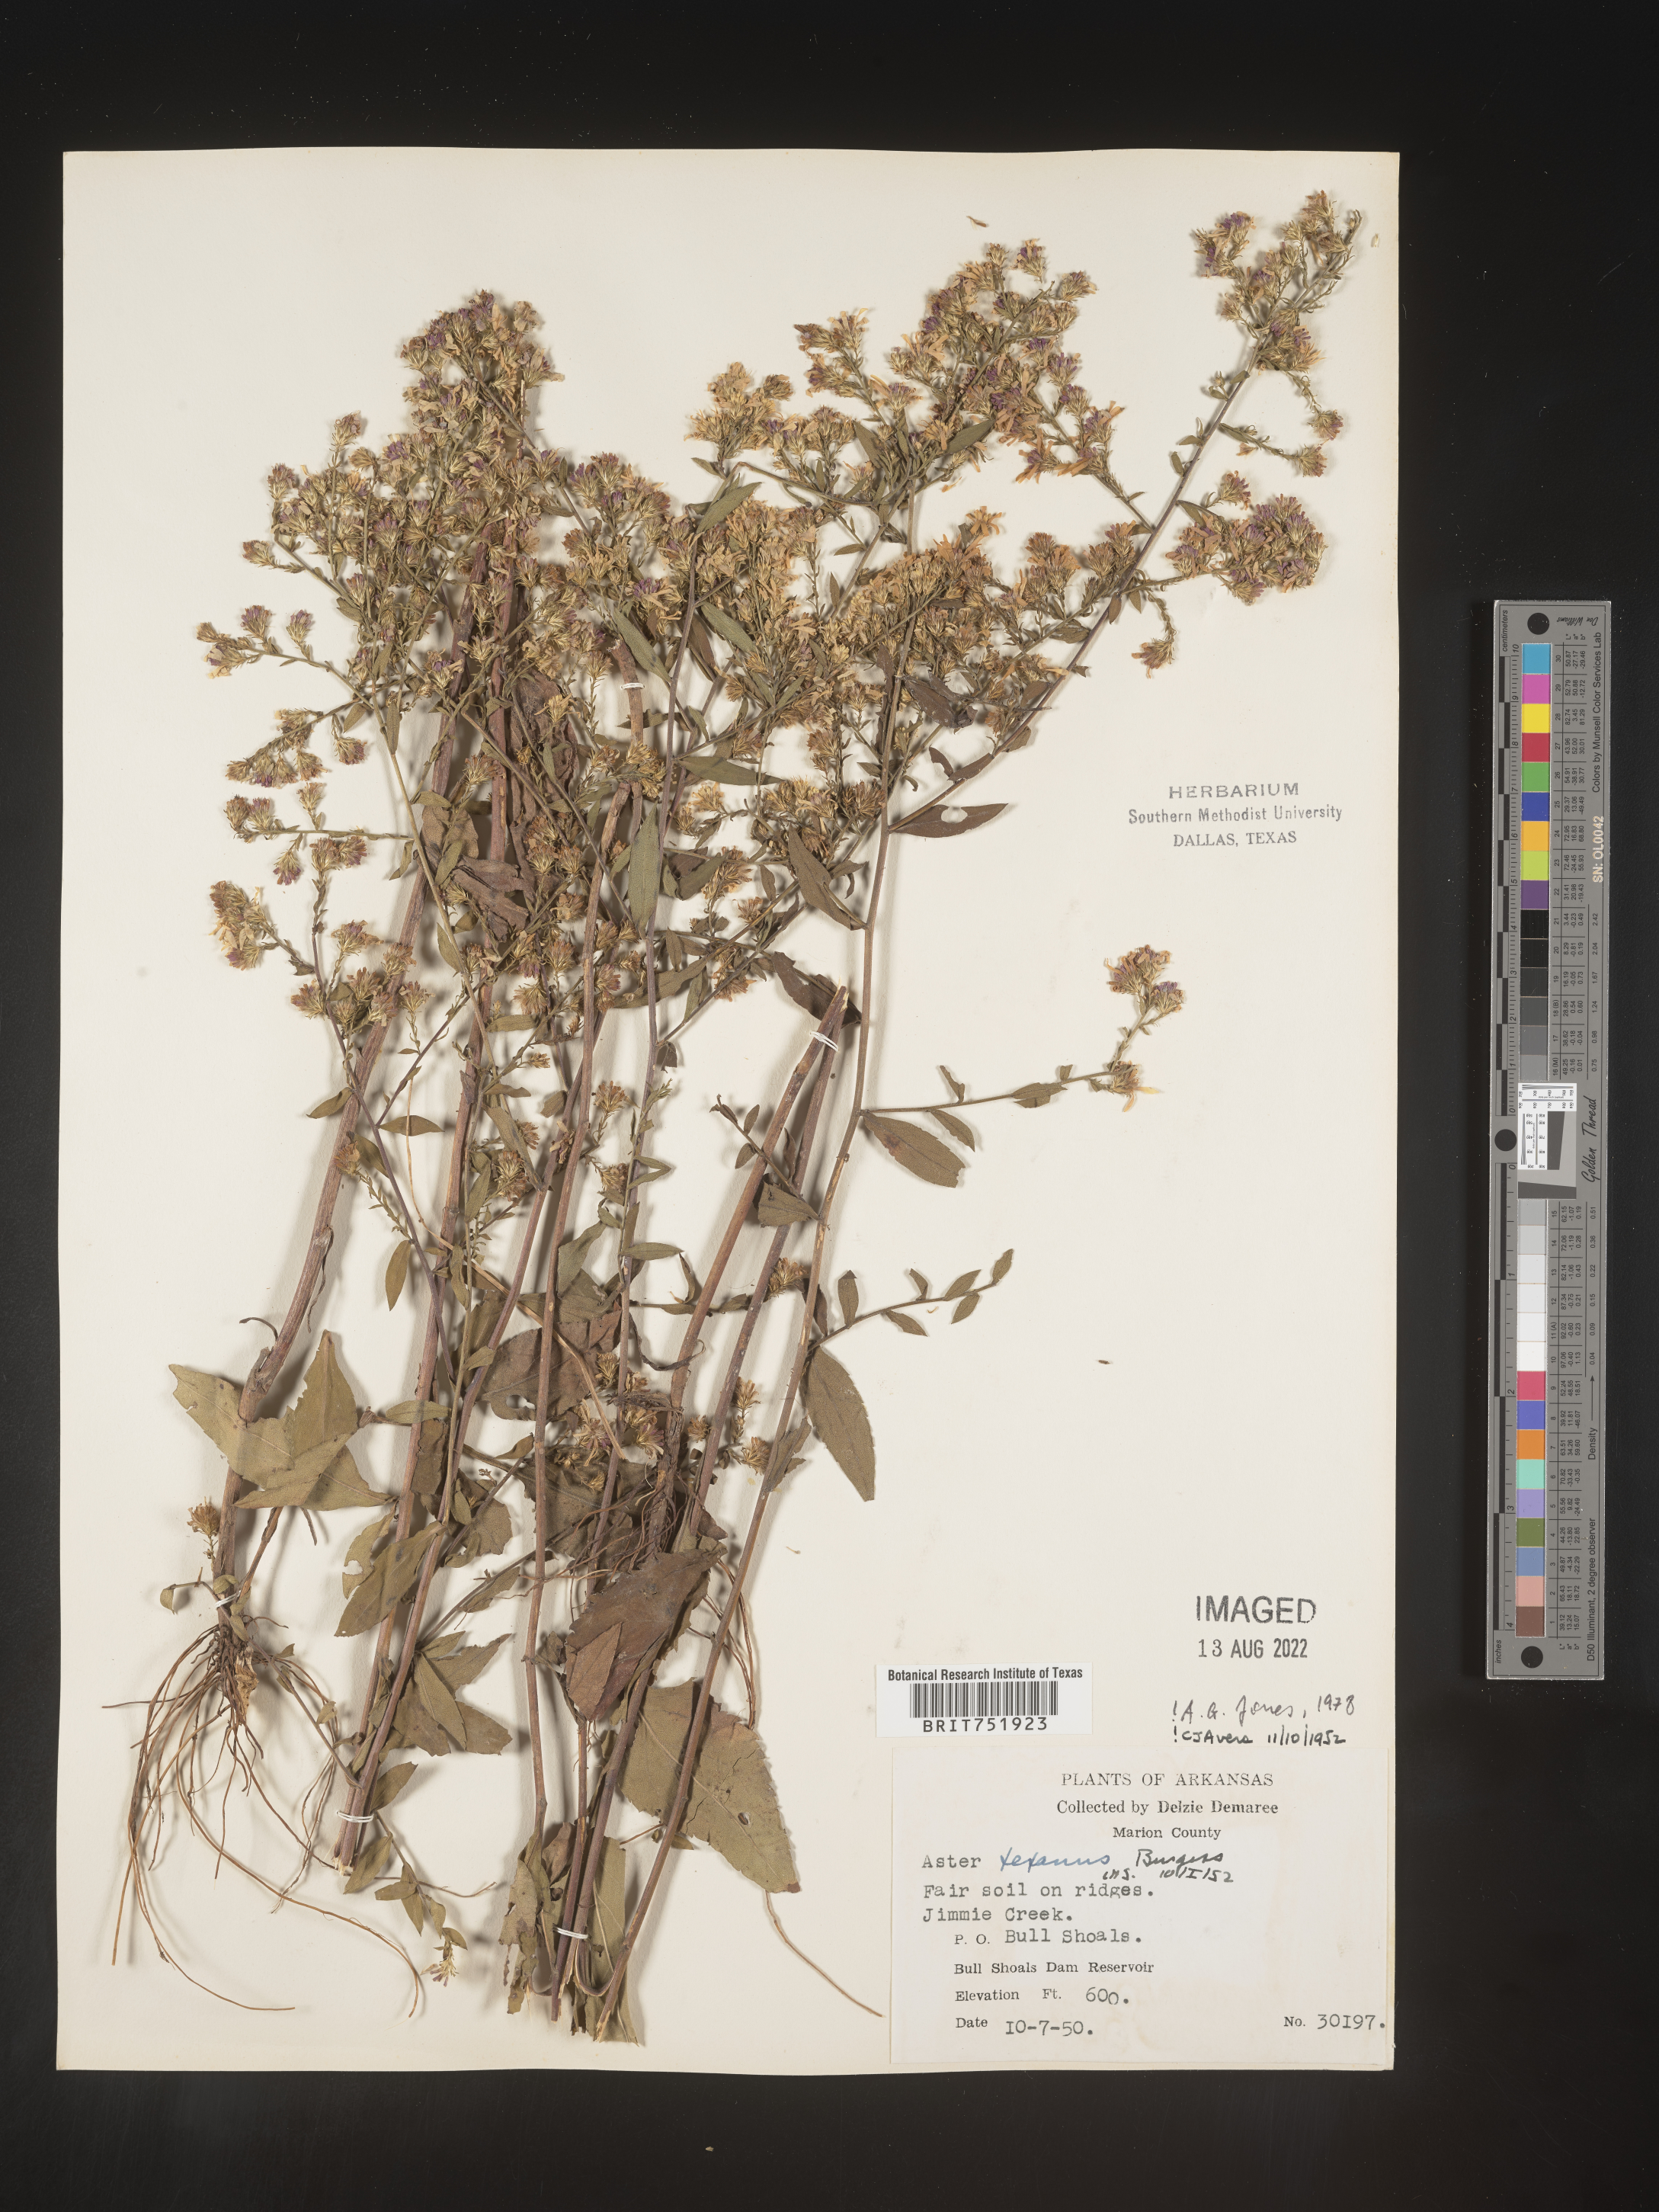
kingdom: Plantae
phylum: Tracheophyta
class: Magnoliopsida
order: Asterales
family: Asteraceae
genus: Symphyotrichum
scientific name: Symphyotrichum drummondii
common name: Drummond's aster
